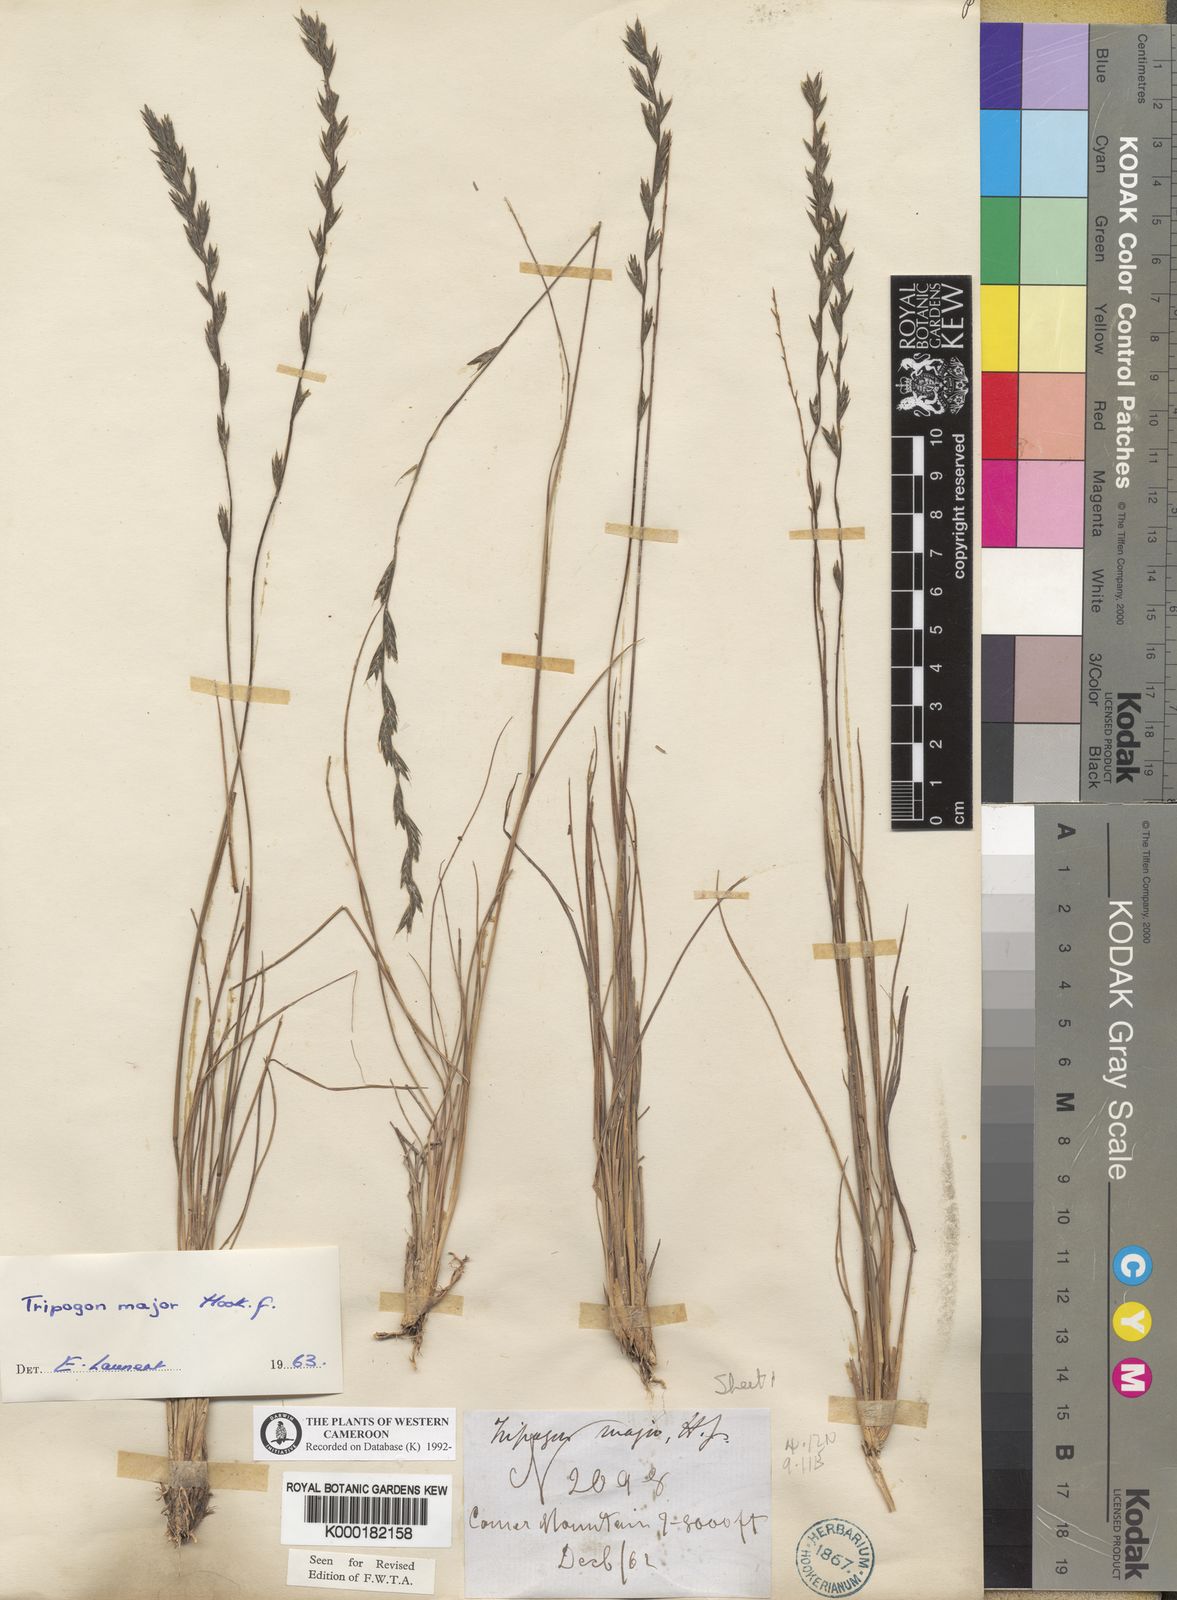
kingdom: Plantae
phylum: Tracheophyta
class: Liliopsida
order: Poales
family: Poaceae
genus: Tripogon
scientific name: Tripogon major
